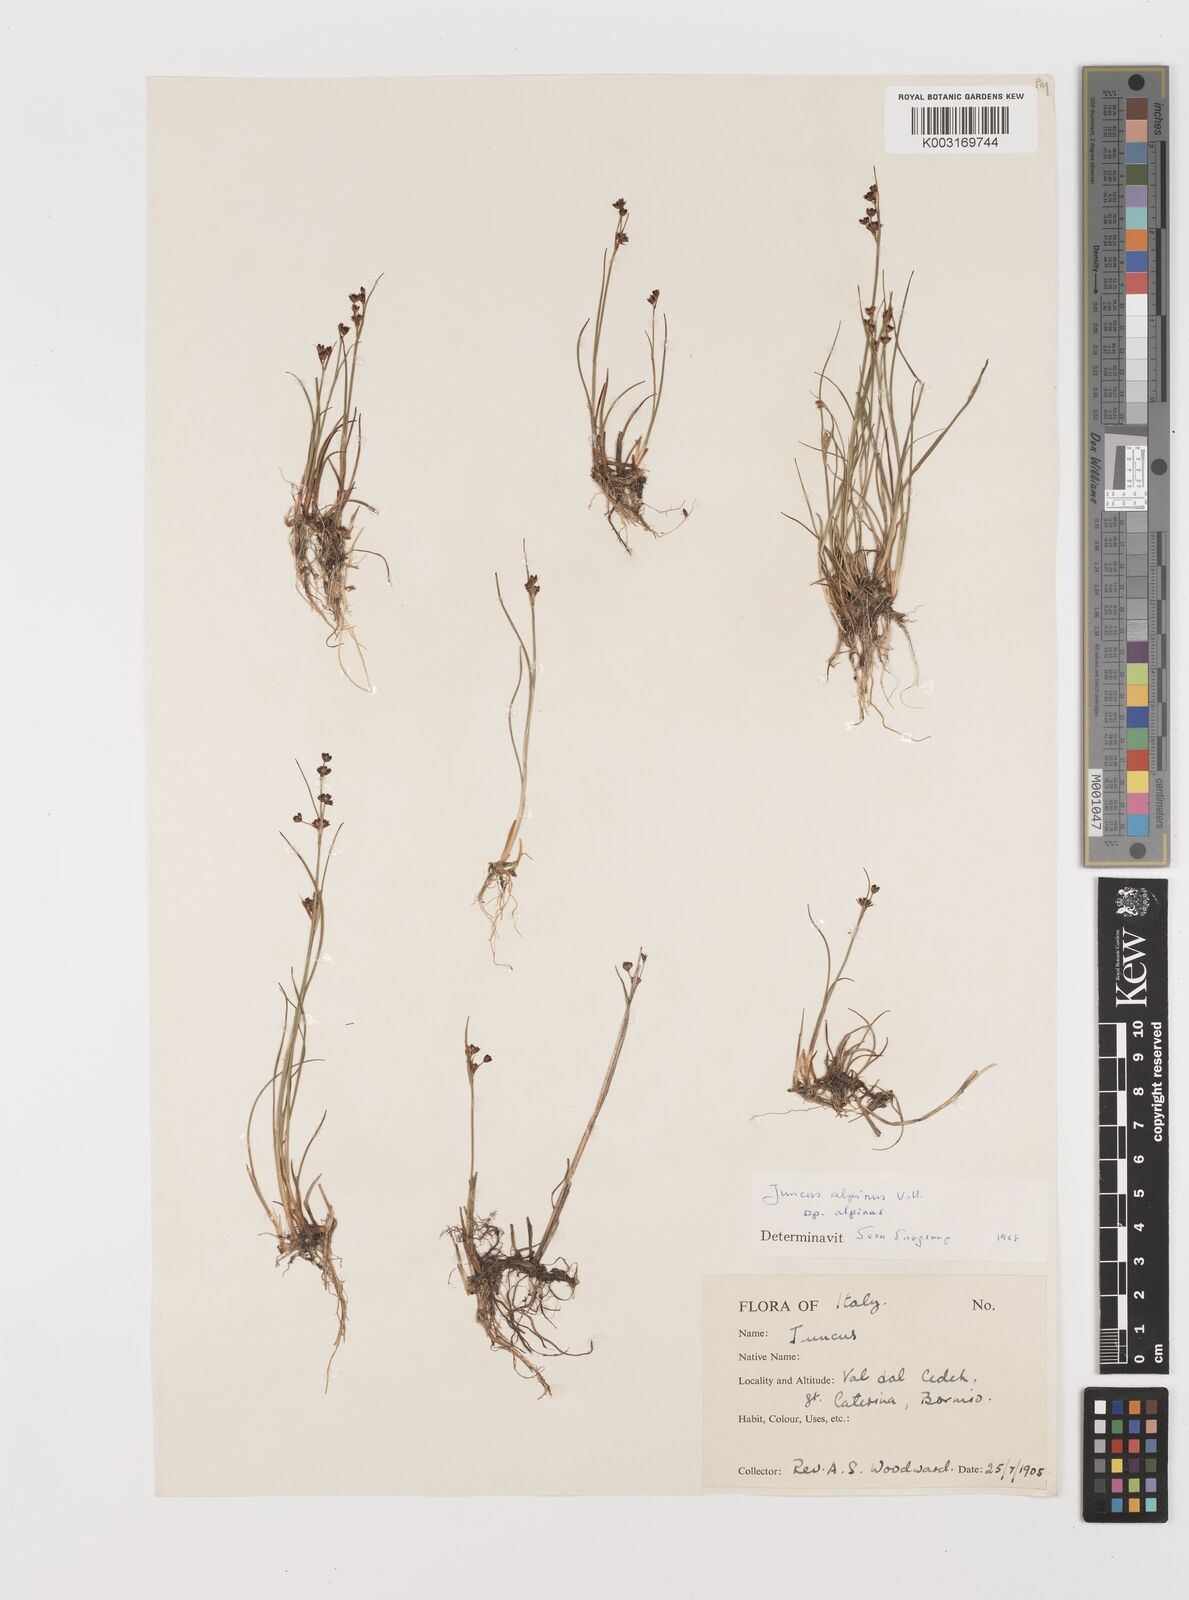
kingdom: Plantae
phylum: Tracheophyta
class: Liliopsida
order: Poales
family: Juncaceae
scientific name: Juncaceae
